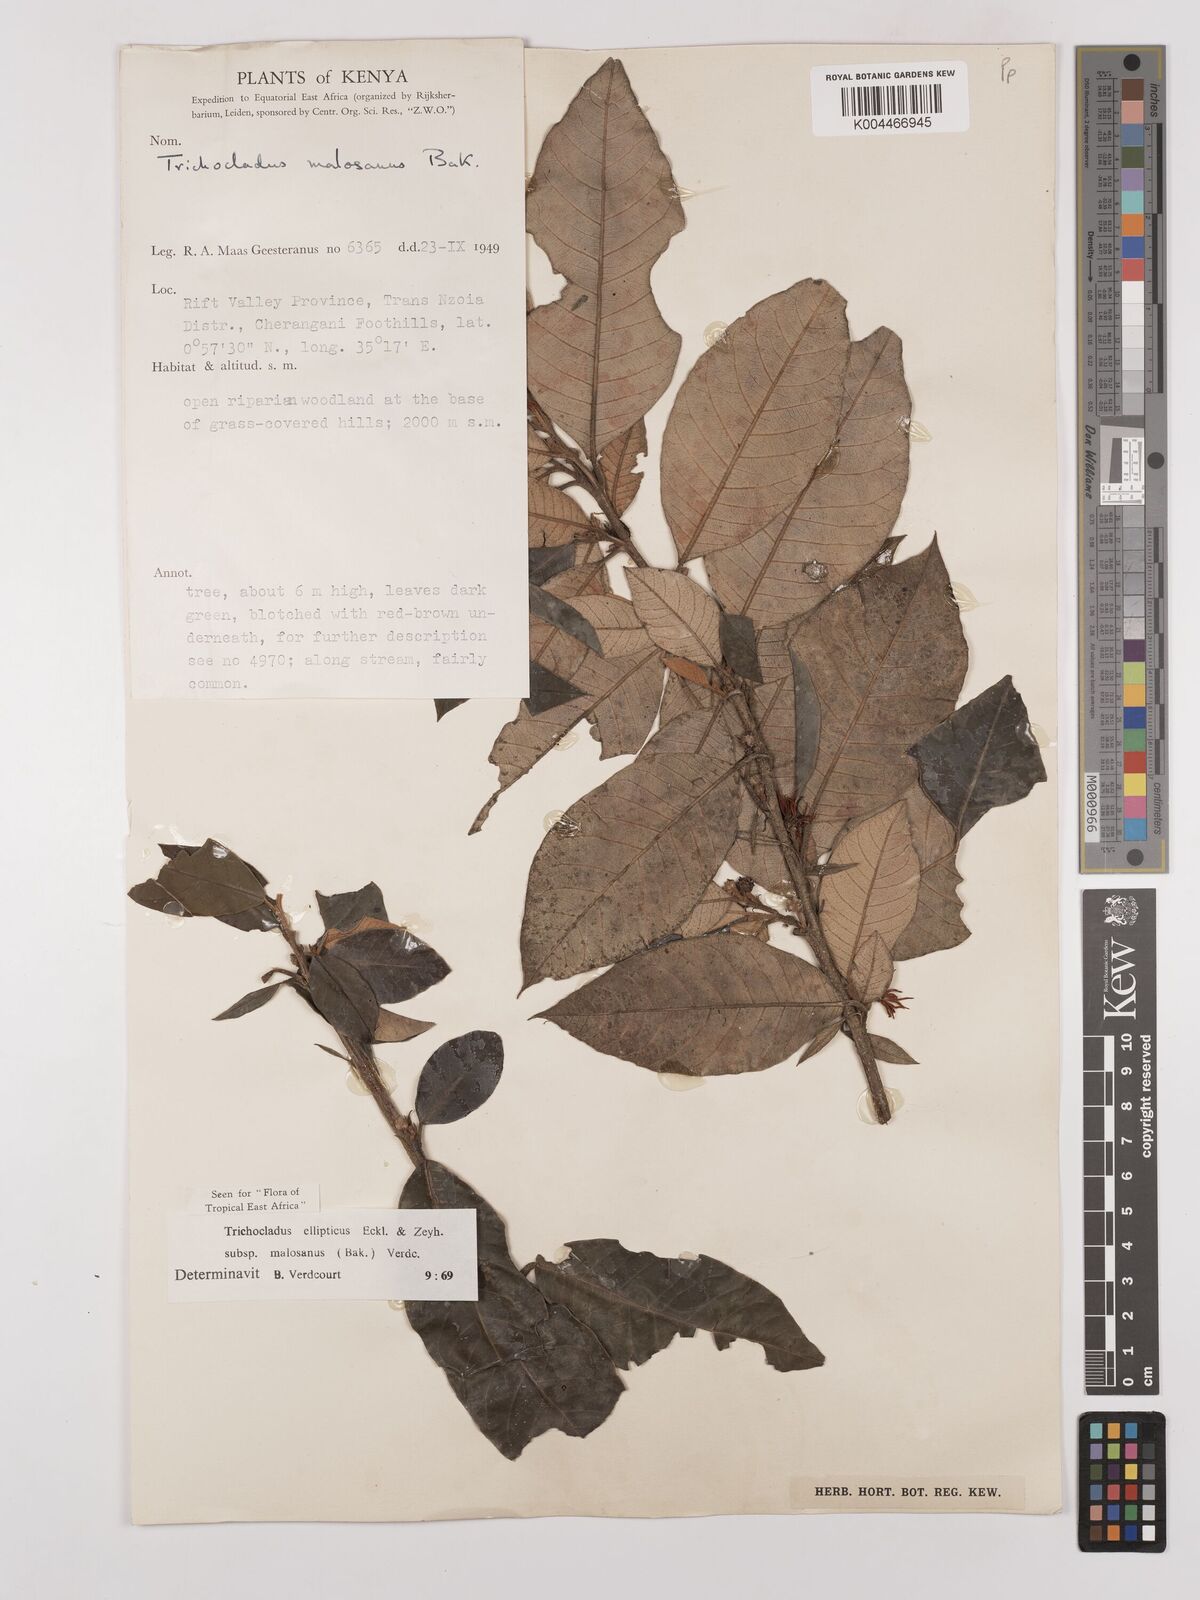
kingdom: Plantae
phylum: Tracheophyta
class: Magnoliopsida
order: Saxifragales
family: Hamamelidaceae
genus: Trichocladus
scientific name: Trichocladus ellipticus
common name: White witch-hazel
